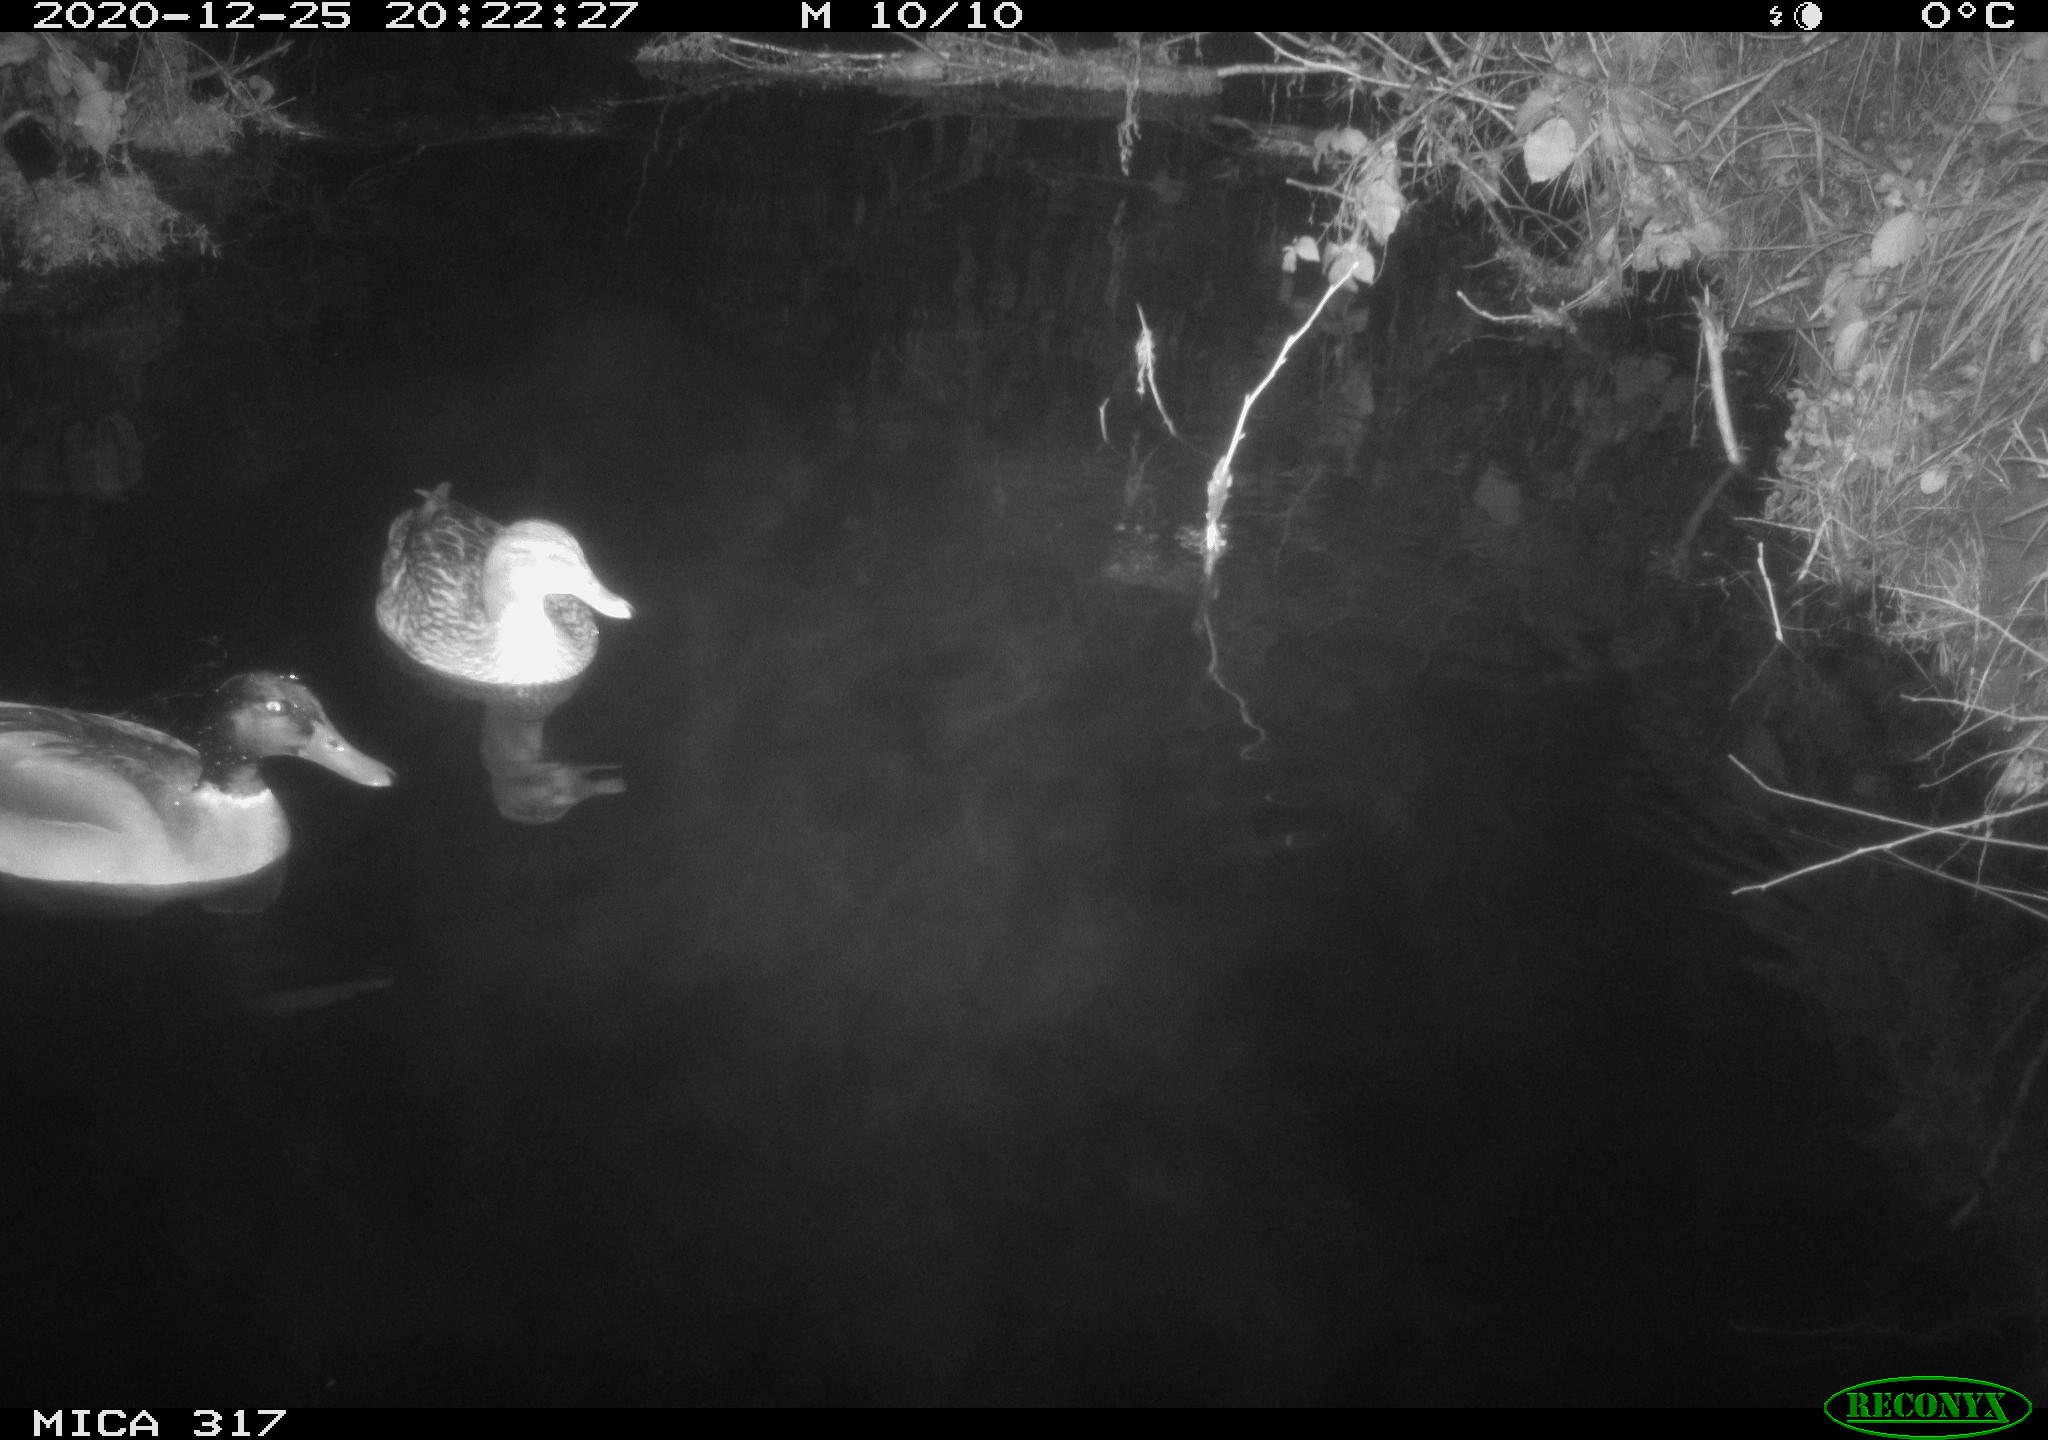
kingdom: Animalia
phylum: Chordata
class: Aves
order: Anseriformes
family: Anatidae
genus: Anas
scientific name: Anas platyrhynchos
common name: Mallard
